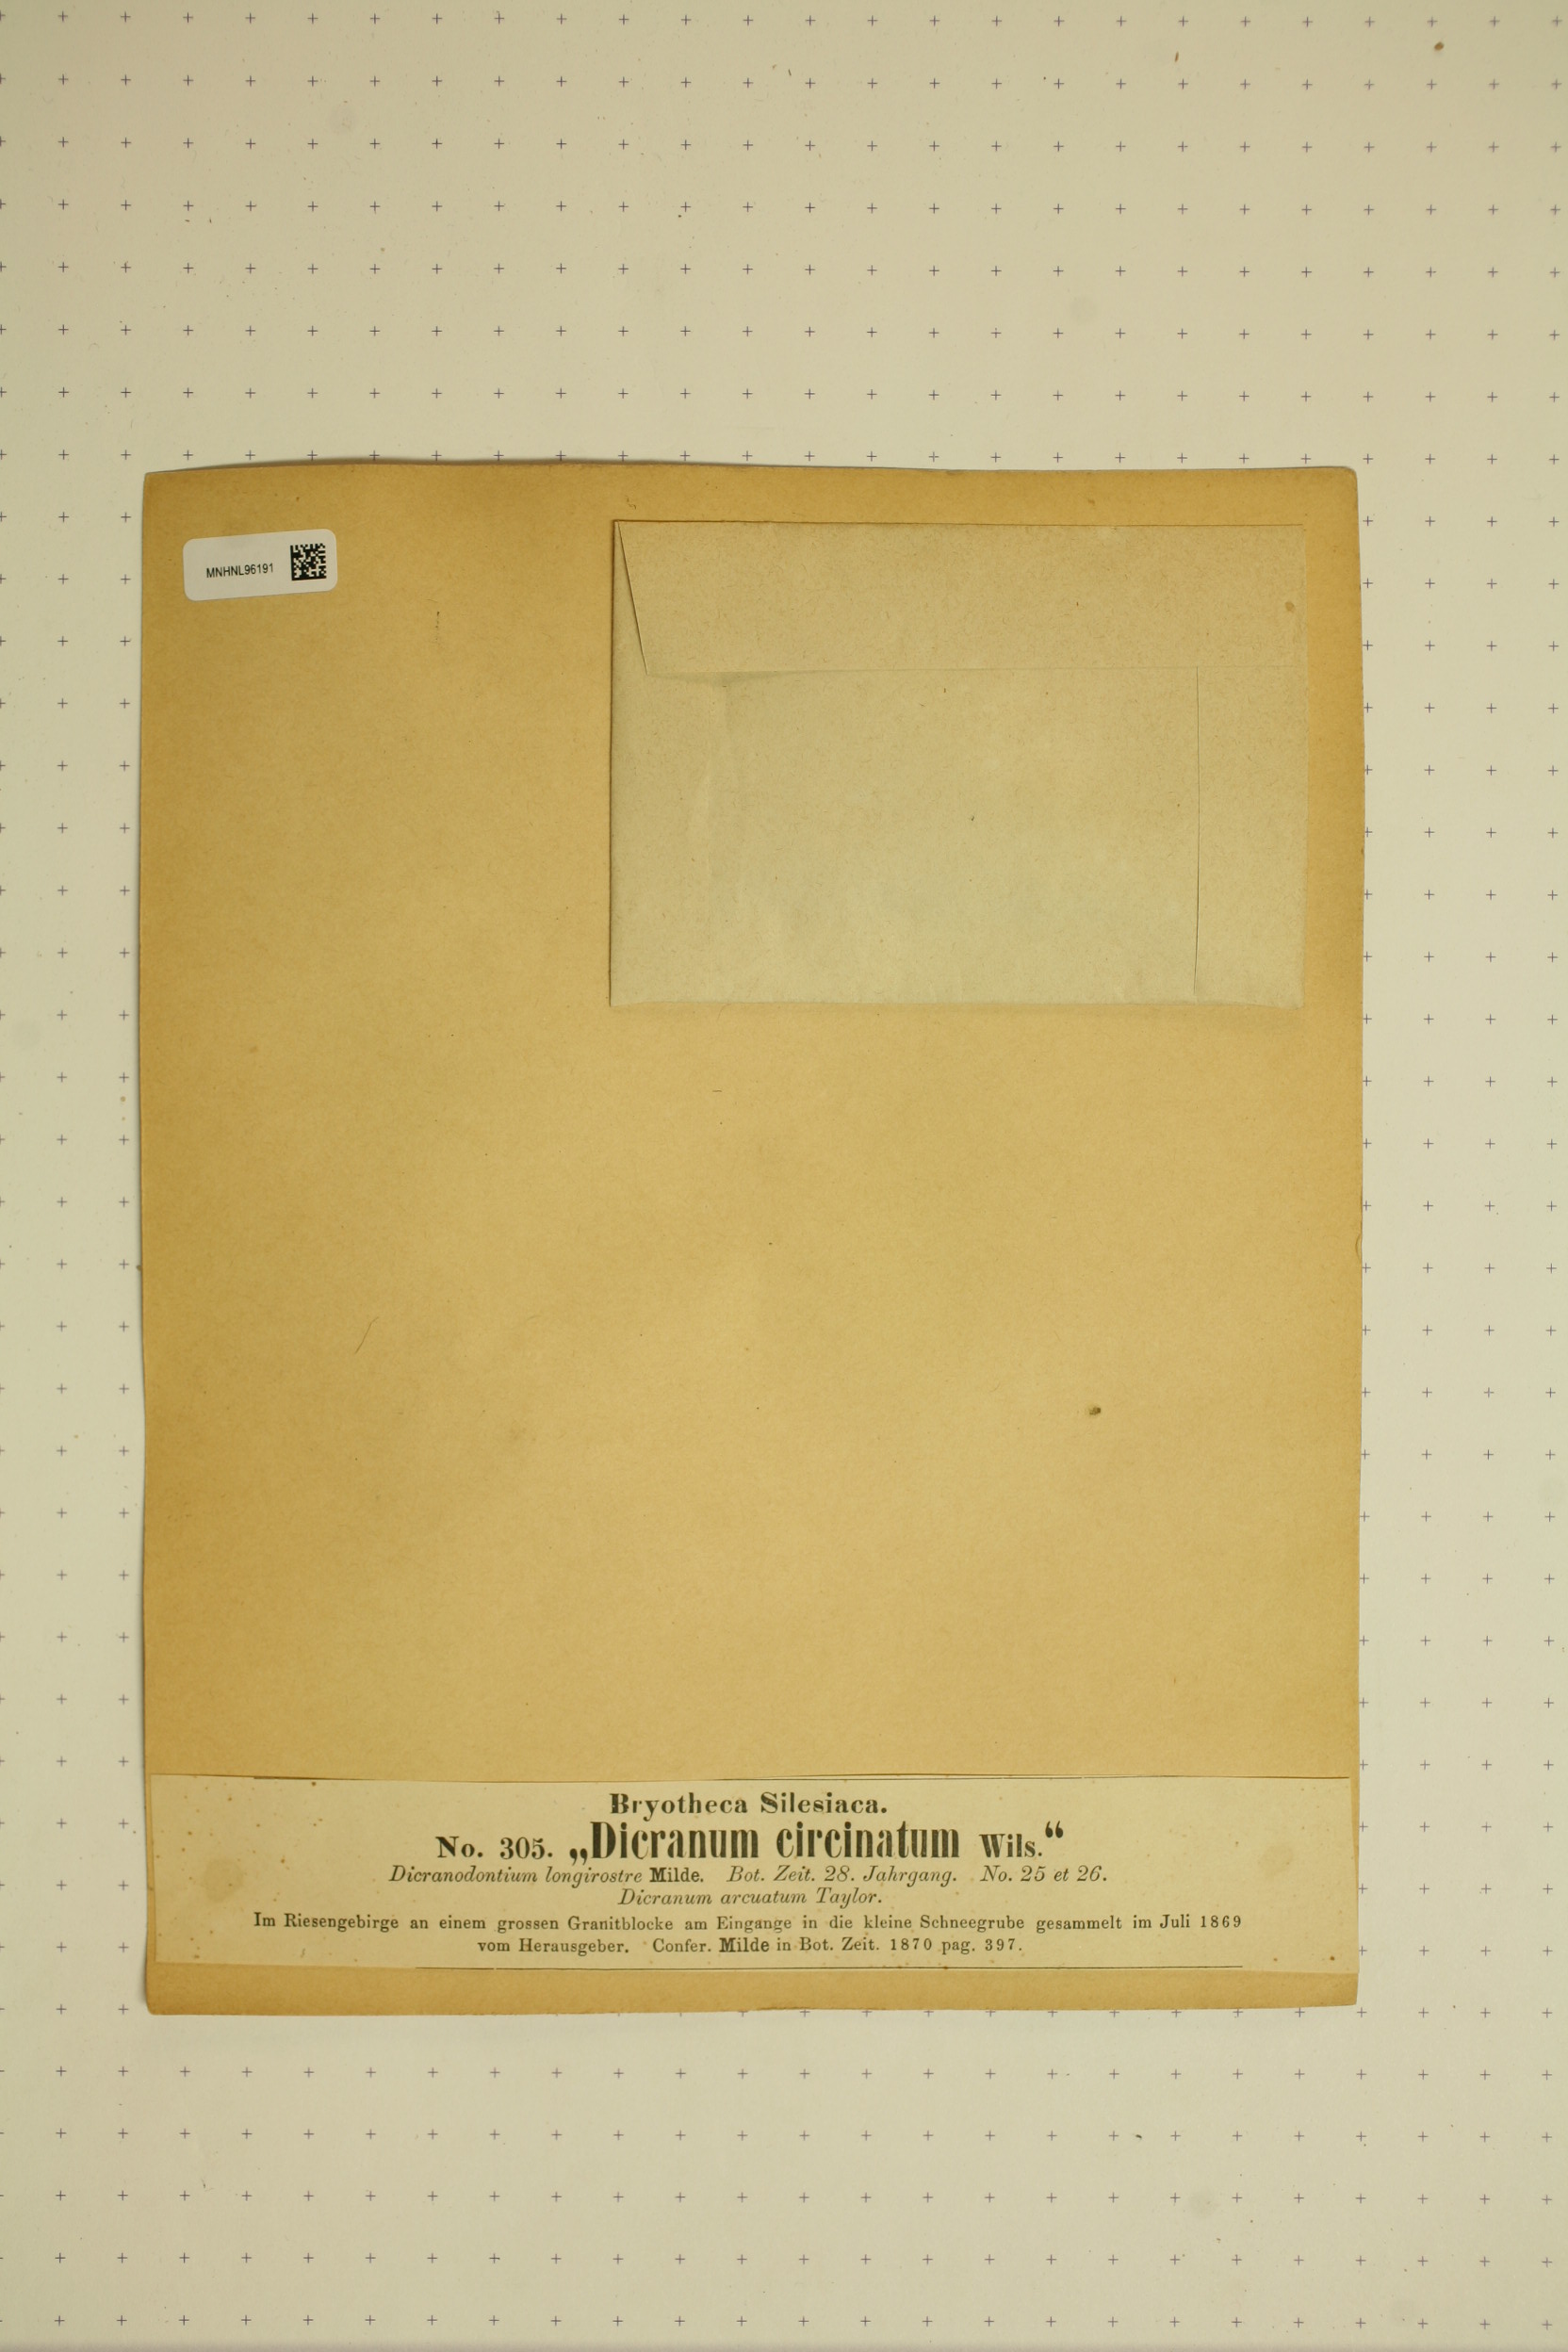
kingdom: Plantae
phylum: Bryophyta
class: Bryopsida
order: Dicranales
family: Leucobryaceae
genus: Dicranodontium
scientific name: Dicranodontium uncinatum
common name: Curve-leaved bow-moss
